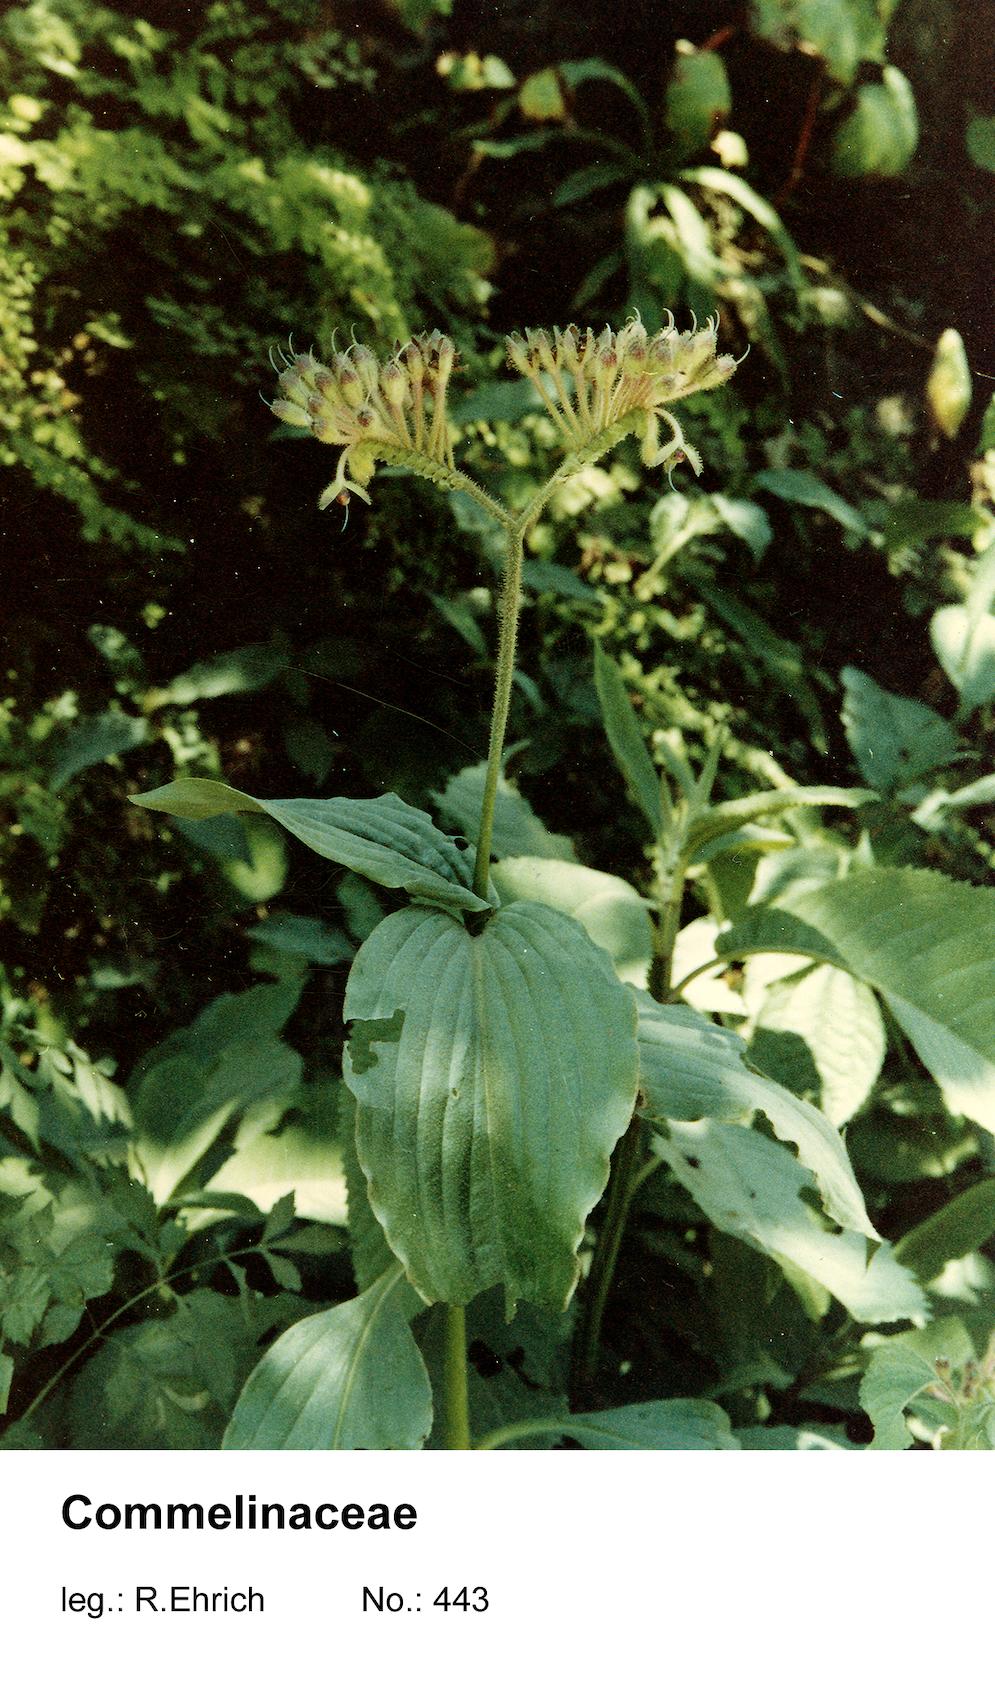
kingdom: Plantae
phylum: Tracheophyta
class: Liliopsida
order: Commelinales
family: Commelinaceae
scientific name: Commelinaceae
